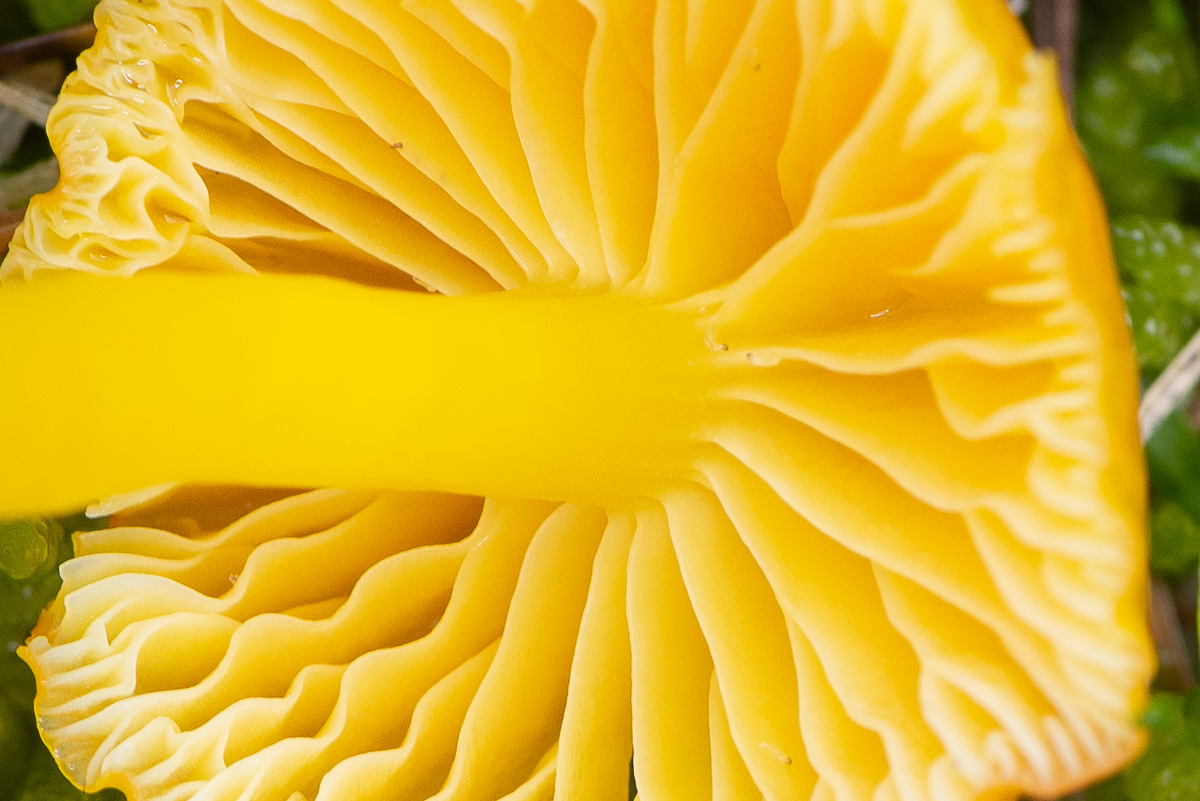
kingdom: Fungi
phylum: Basidiomycota
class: Agaricomycetes
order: Agaricales
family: Hygrophoraceae
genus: Hygrocybe
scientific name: Hygrocybe ceracea
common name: voksgul vokshat
